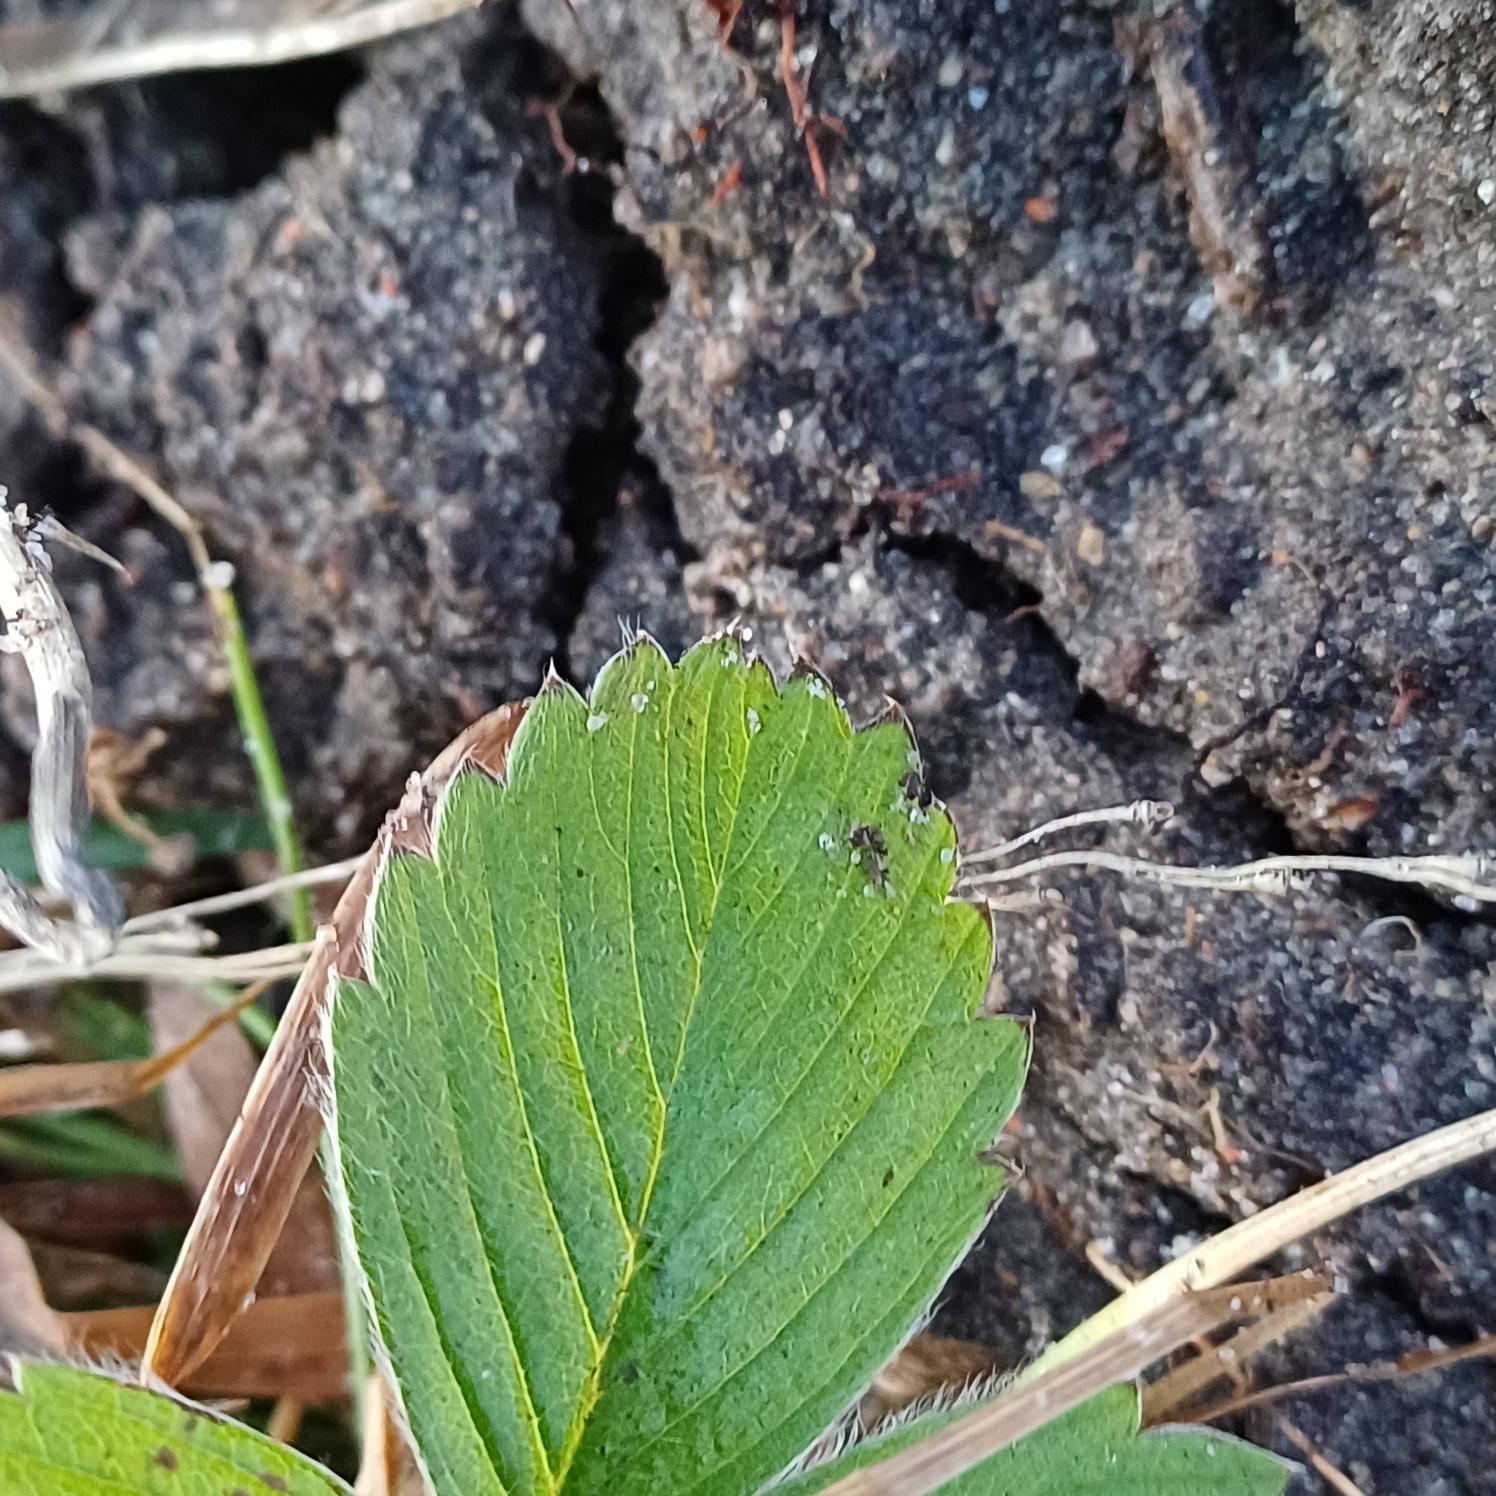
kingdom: Plantae
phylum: Tracheophyta
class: Magnoliopsida
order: Rosales
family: Rosaceae
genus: Fragaria
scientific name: Fragaria viridis
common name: Bakke-jordbær
